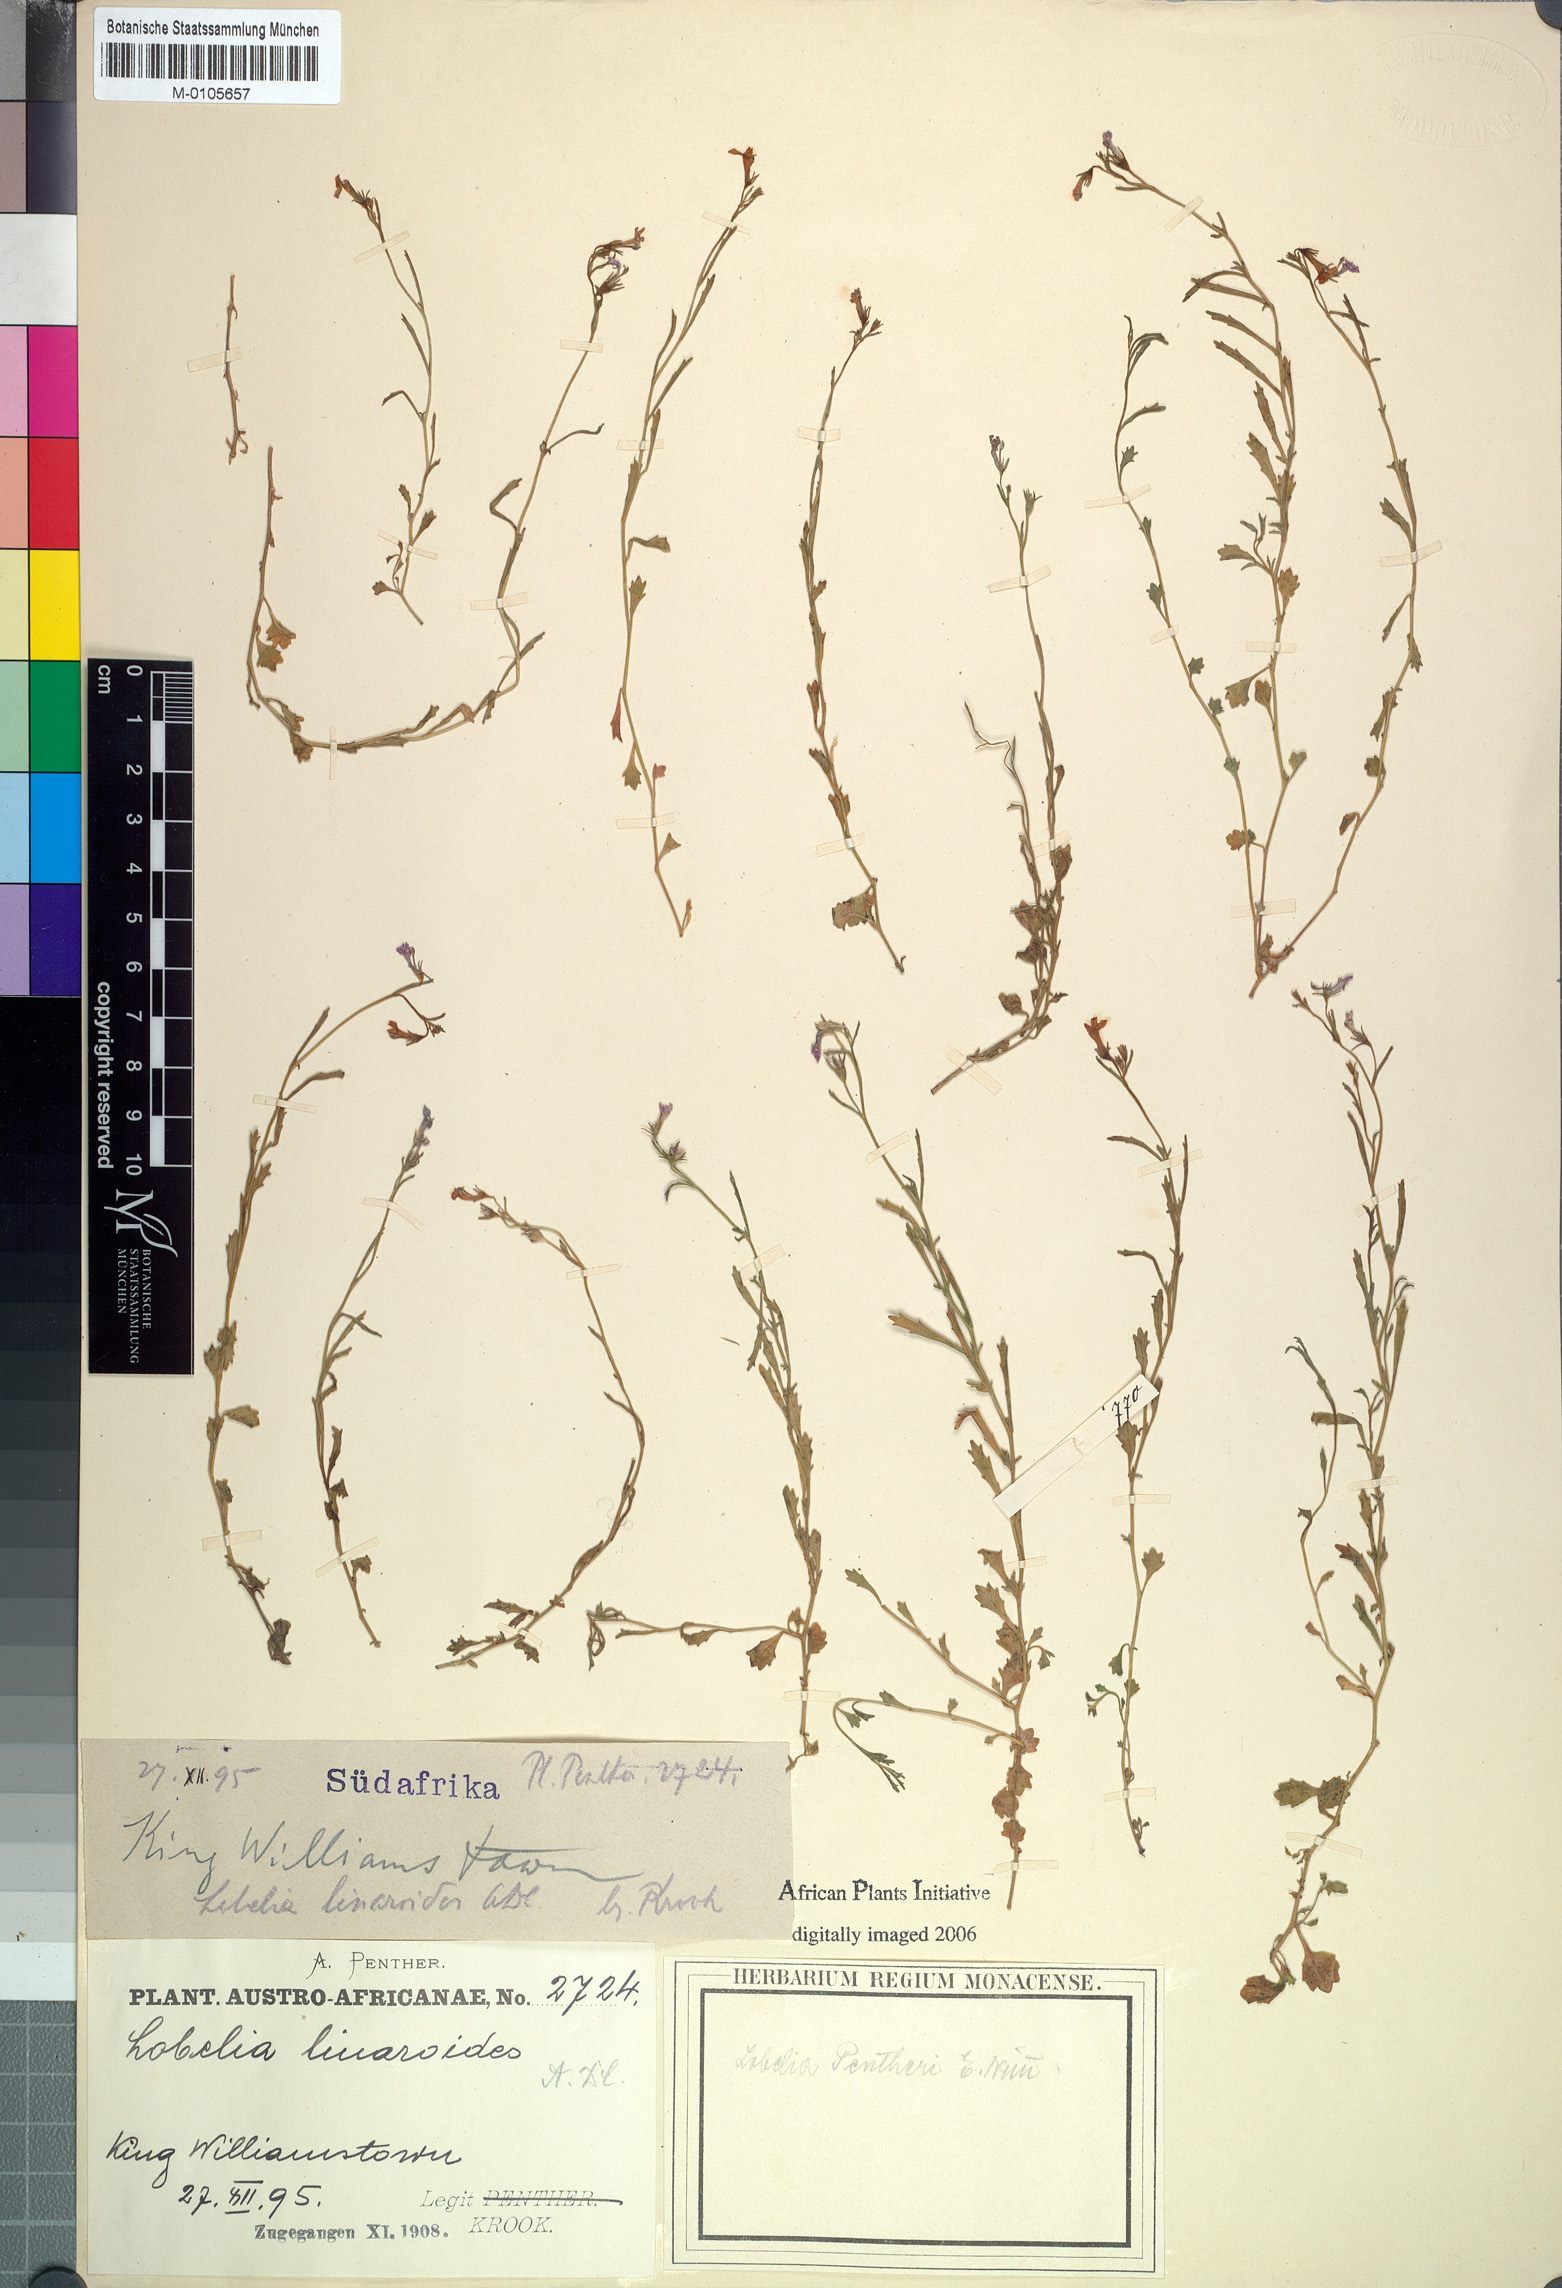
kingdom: Plantae
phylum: Tracheophyta
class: Magnoliopsida
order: Asterales
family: Campanulaceae
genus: Lobelia
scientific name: Lobelia pentheri
